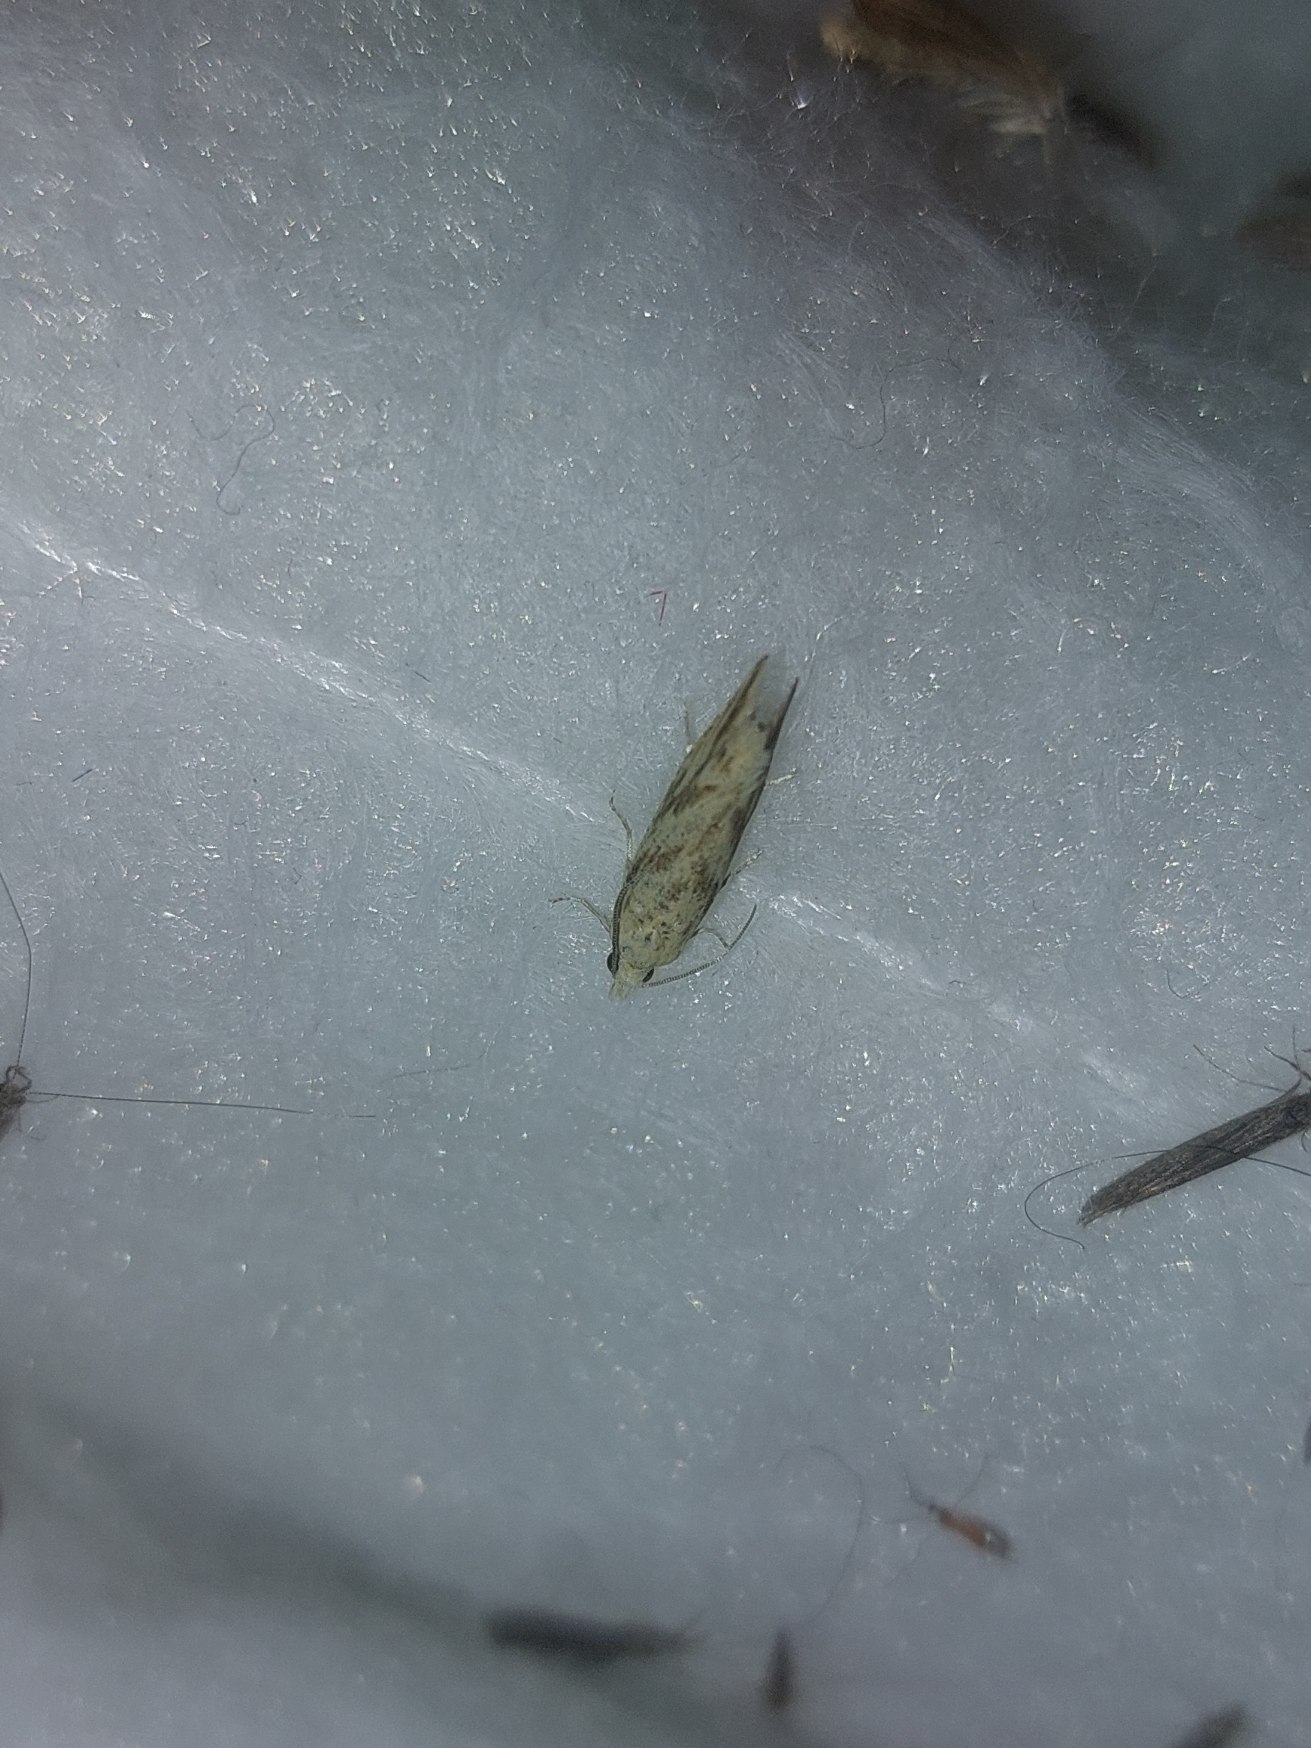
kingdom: Animalia
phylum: Arthropoda
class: Insecta
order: Lepidoptera
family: Tortricidae
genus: Thiodia
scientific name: Thiodia citrana
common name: Citrongul vikler
